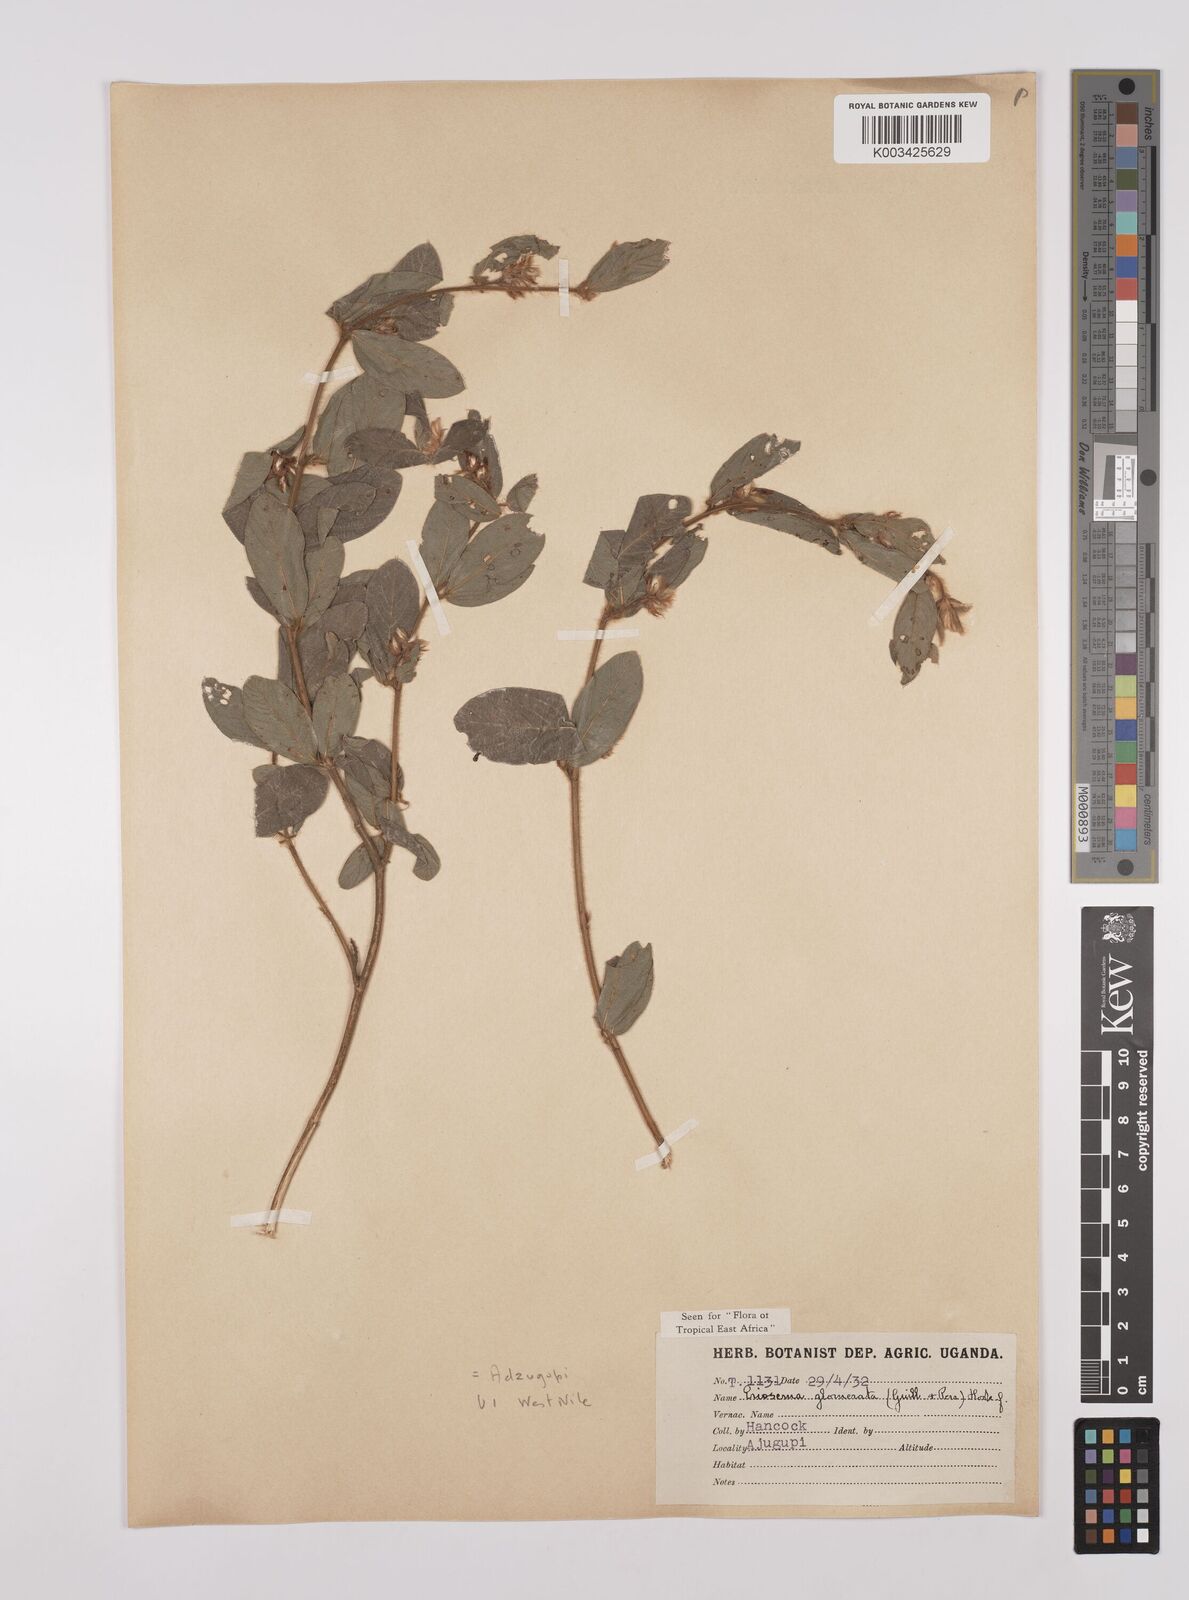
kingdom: Plantae
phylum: Tracheophyta
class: Magnoliopsida
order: Fabales
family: Fabaceae
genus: Eriosema
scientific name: Eriosema glomeratum
